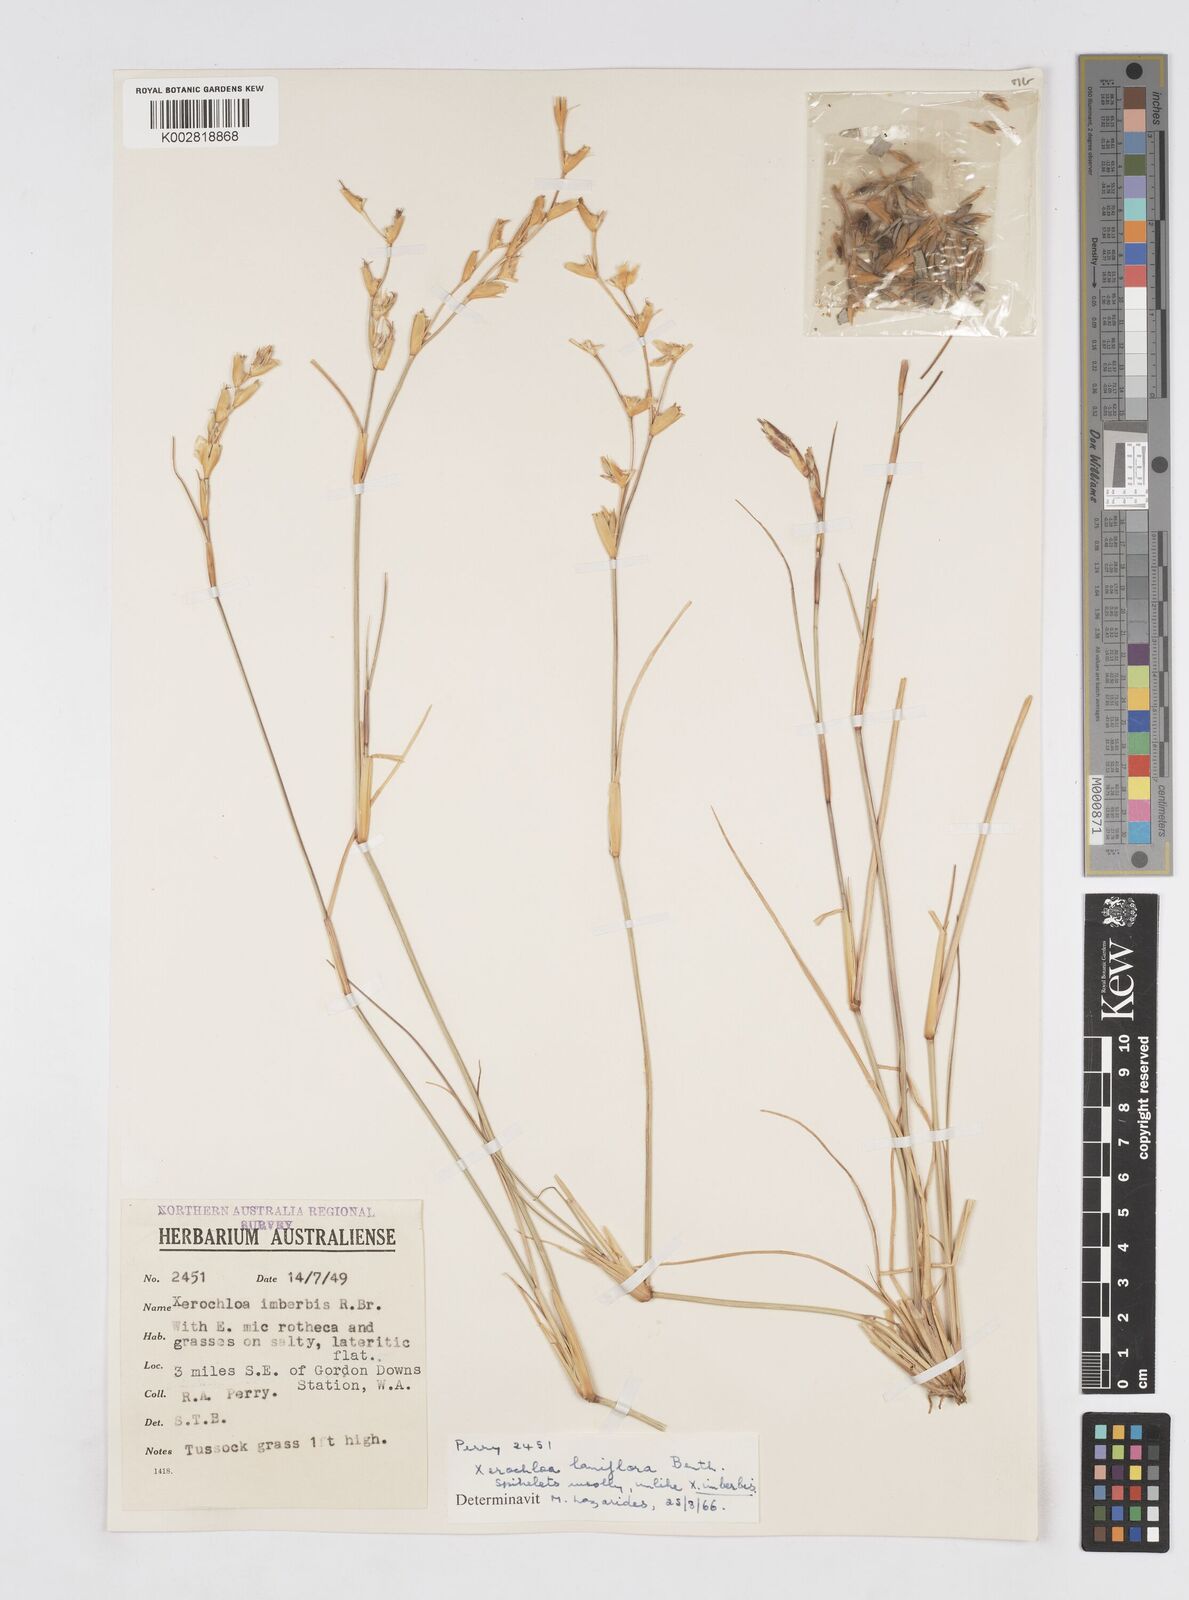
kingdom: Plantae
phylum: Tracheophyta
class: Liliopsida
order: Poales
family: Poaceae
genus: Xerochloa
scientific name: Xerochloa laniflora
